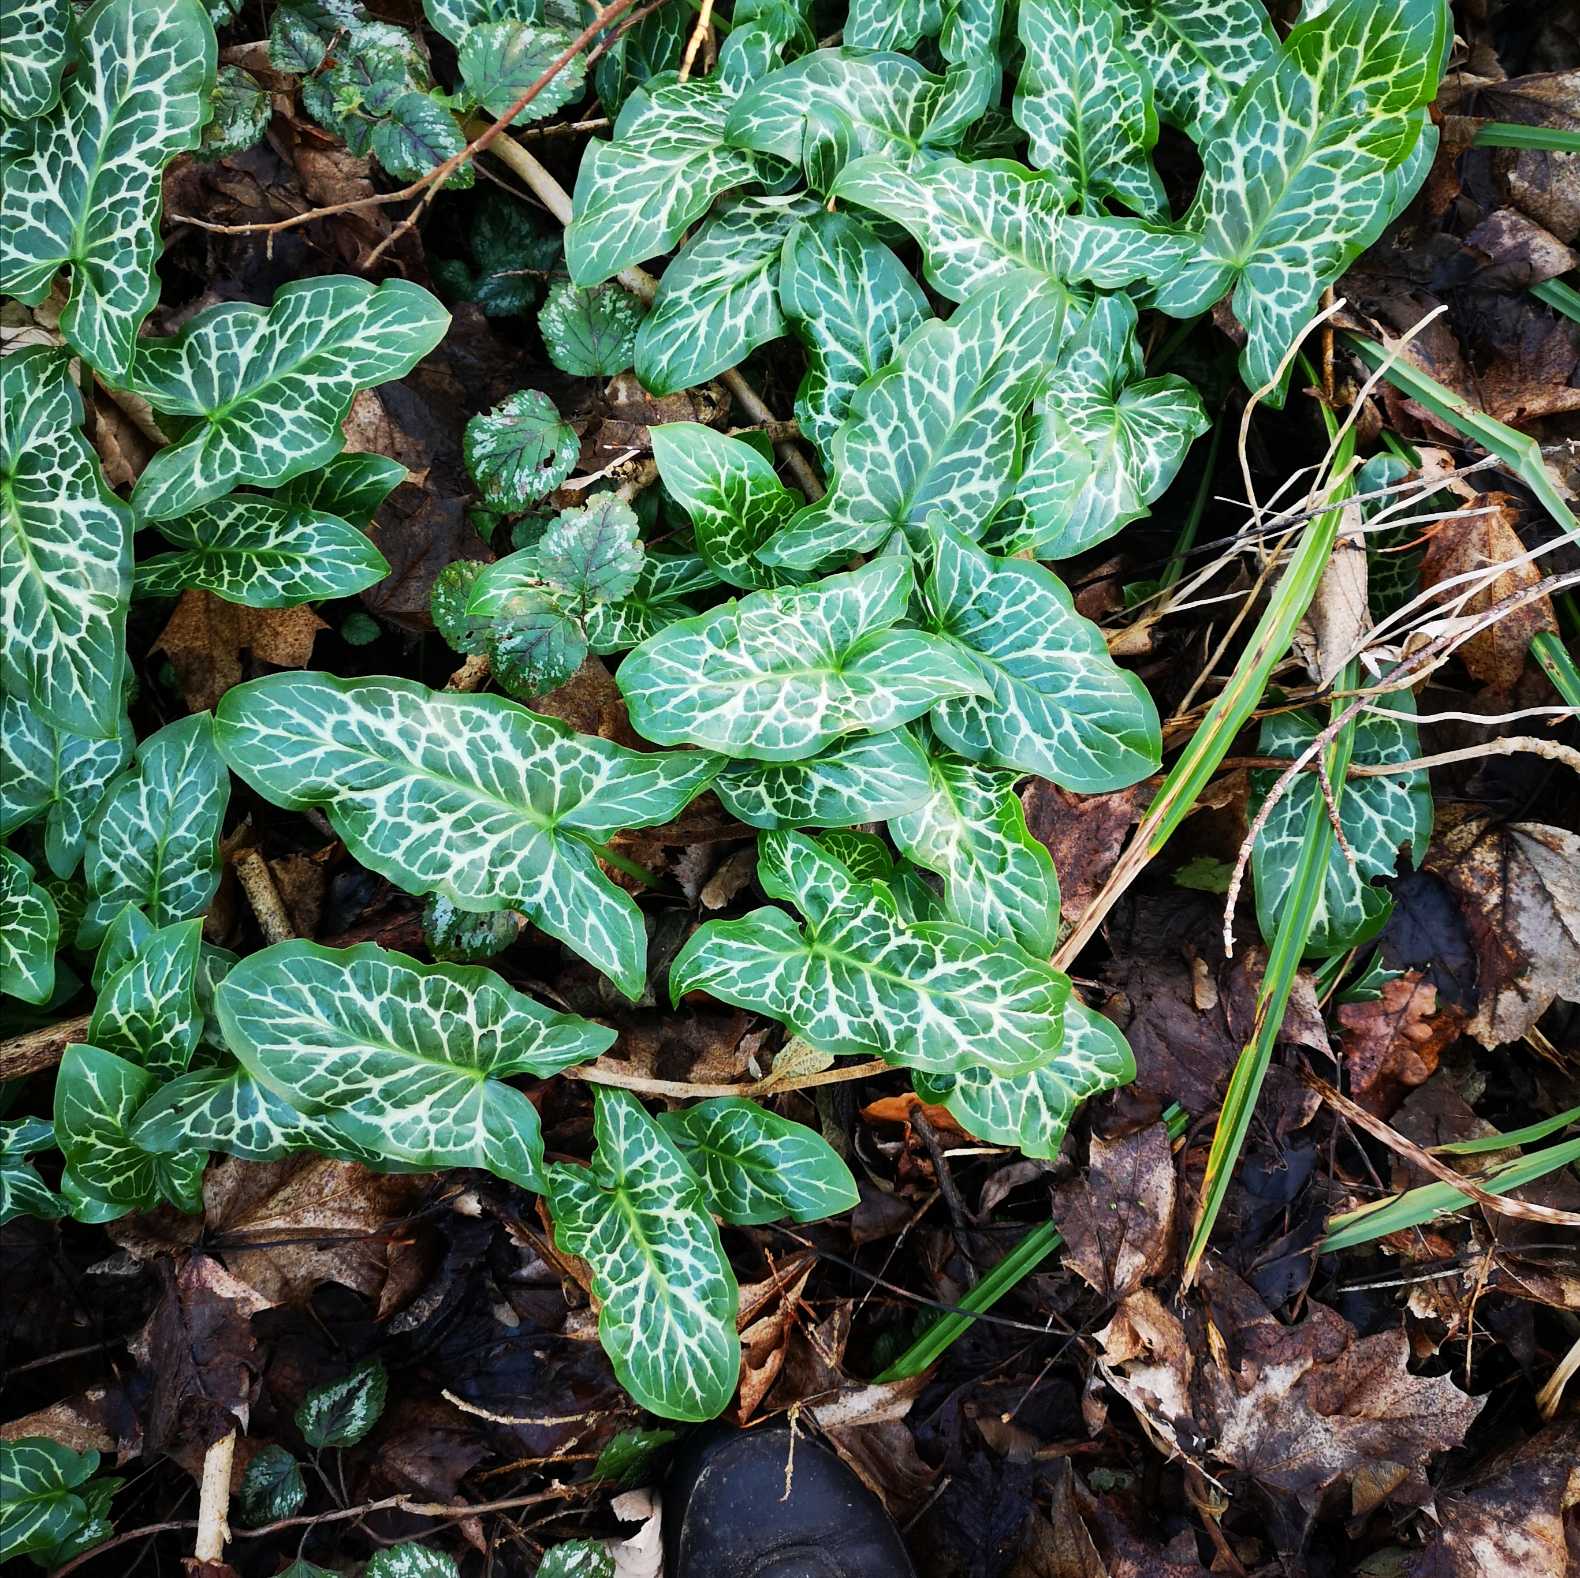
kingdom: Plantae
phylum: Tracheophyta
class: Liliopsida
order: Alismatales
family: Araceae
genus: Arum
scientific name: Arum italicum
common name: Italiensk arum
